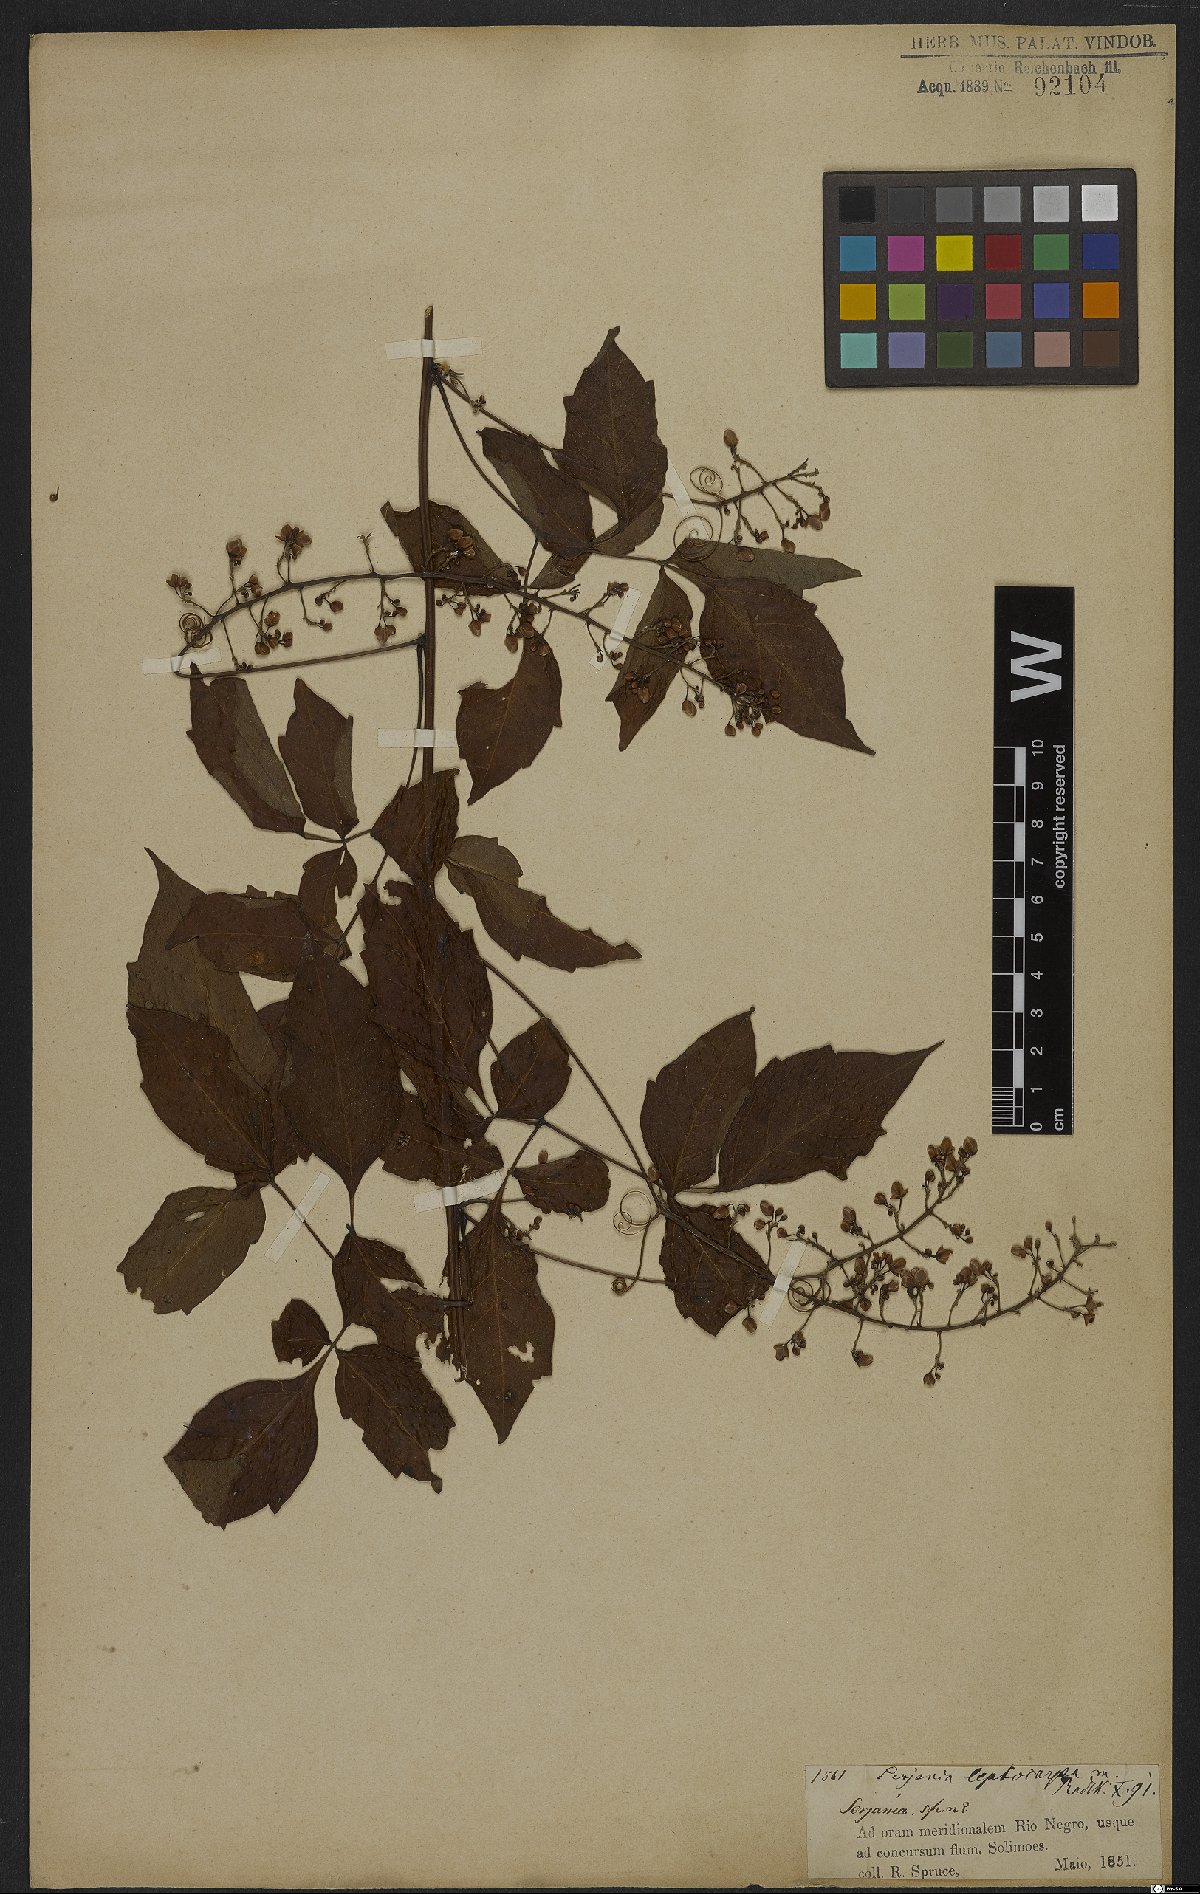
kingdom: Plantae
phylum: Tracheophyta
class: Magnoliopsida
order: Sapindales
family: Sapindaceae
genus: Serjania
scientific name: Serjania leptocarpa
